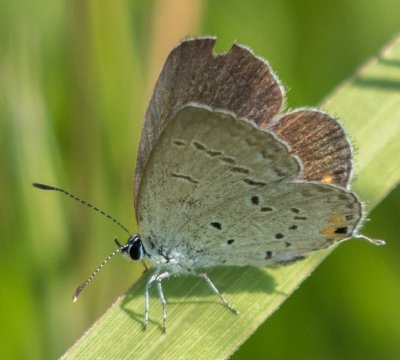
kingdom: Animalia
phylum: Arthropoda
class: Insecta
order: Lepidoptera
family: Lycaenidae
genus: Elkalyce
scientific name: Elkalyce comyntas
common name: Eastern Tailed-Blue
